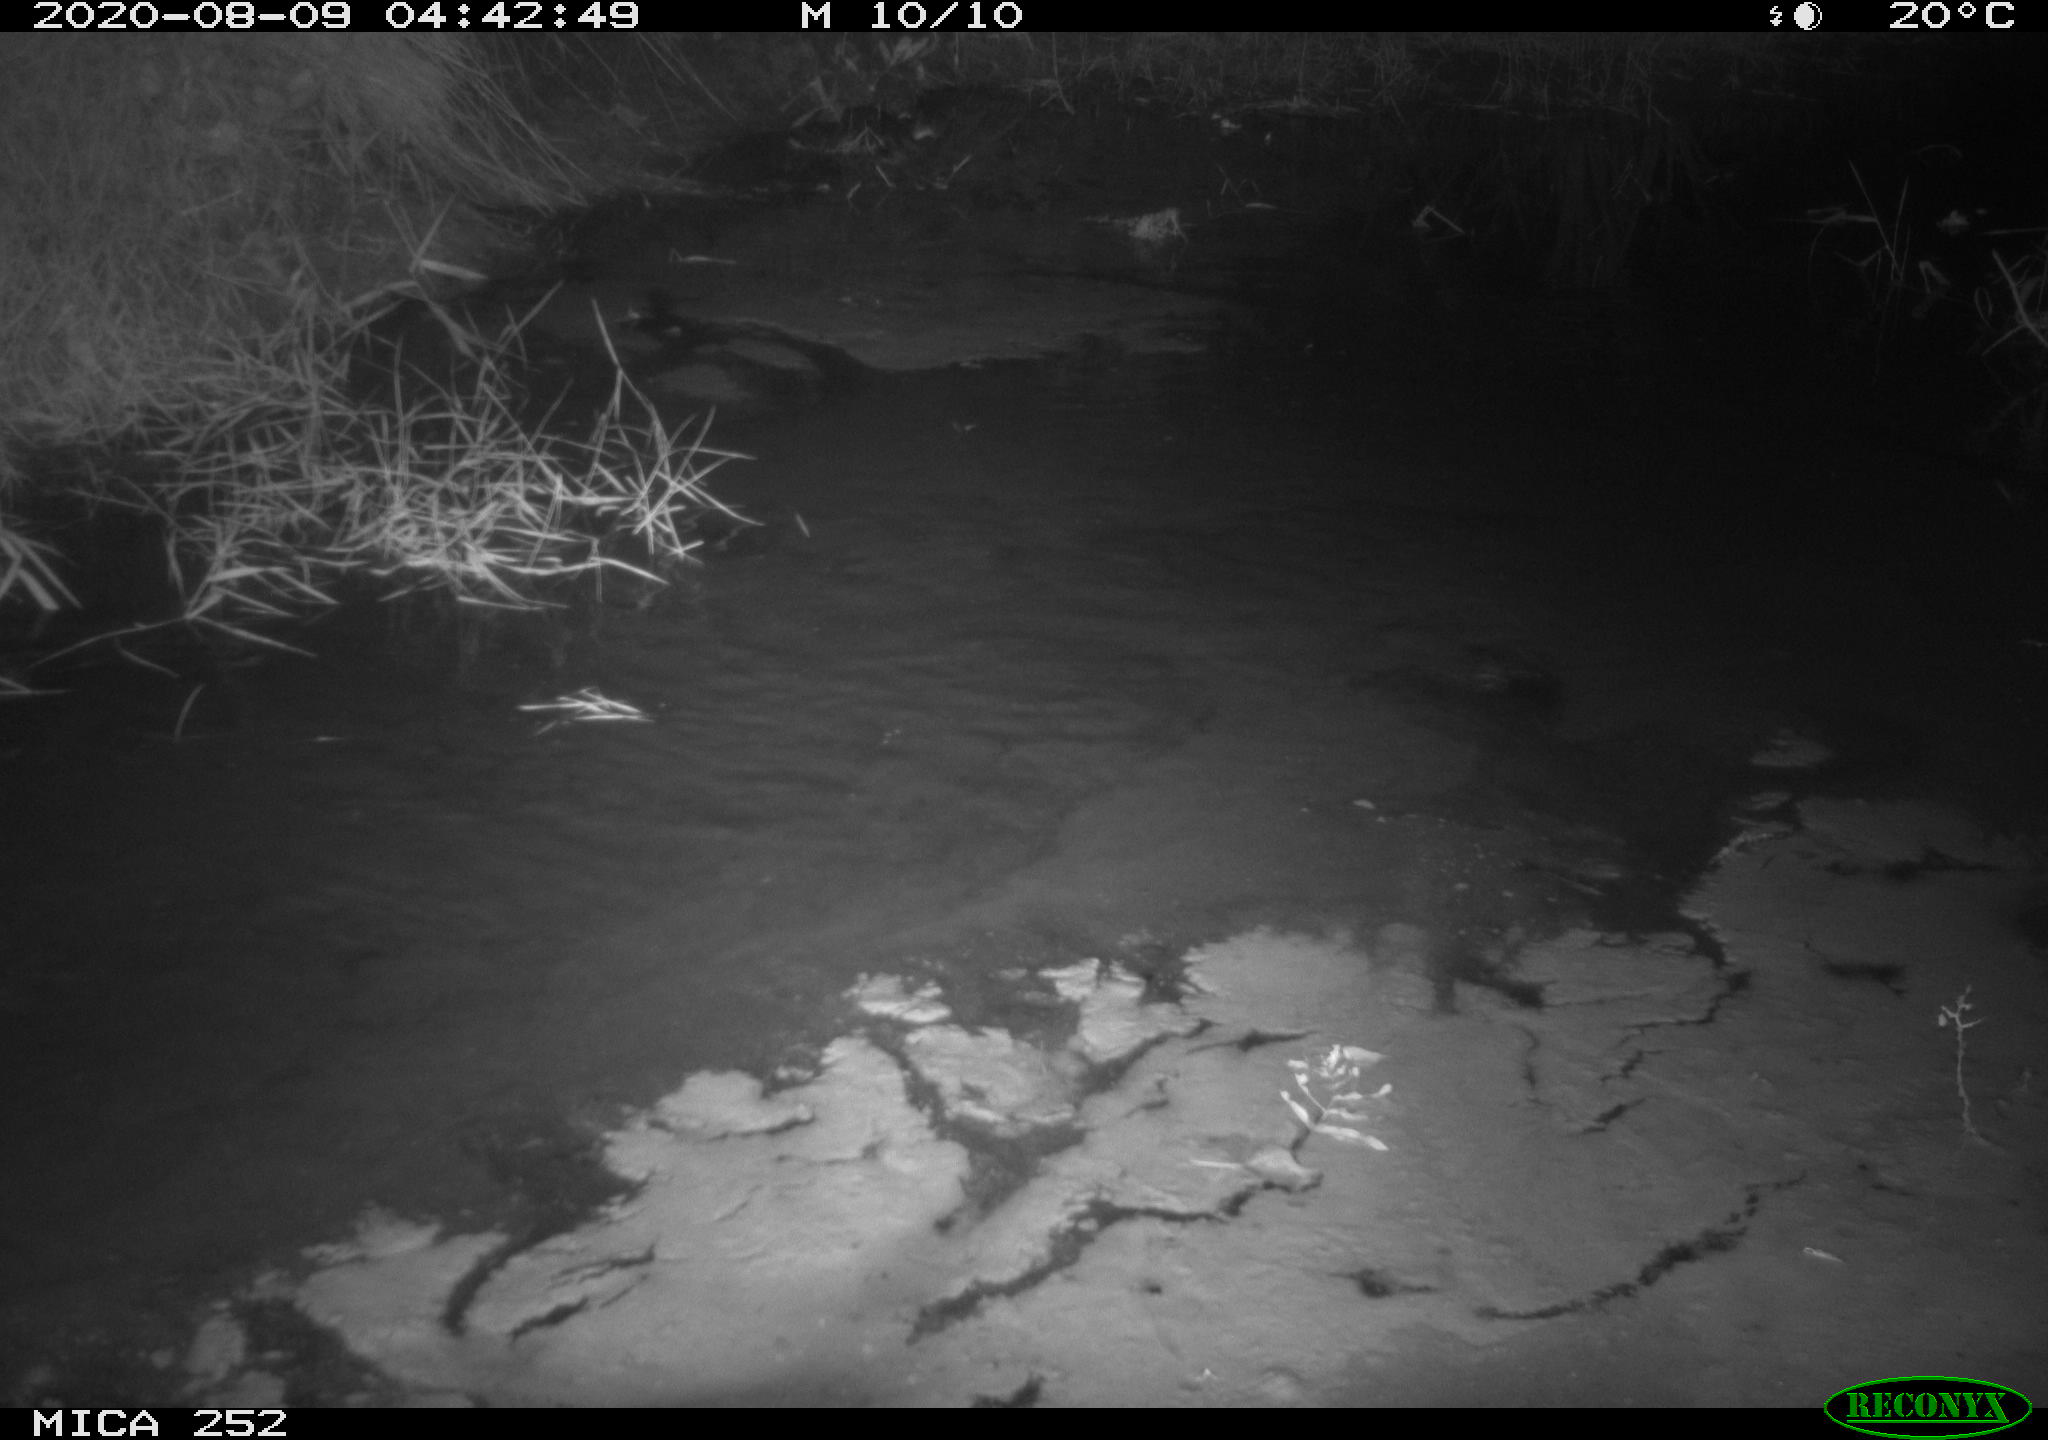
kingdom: Animalia
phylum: Chordata
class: Mammalia
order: Rodentia
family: Castoridae
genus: Castor
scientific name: Castor fiber
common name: Eurasian beaver
